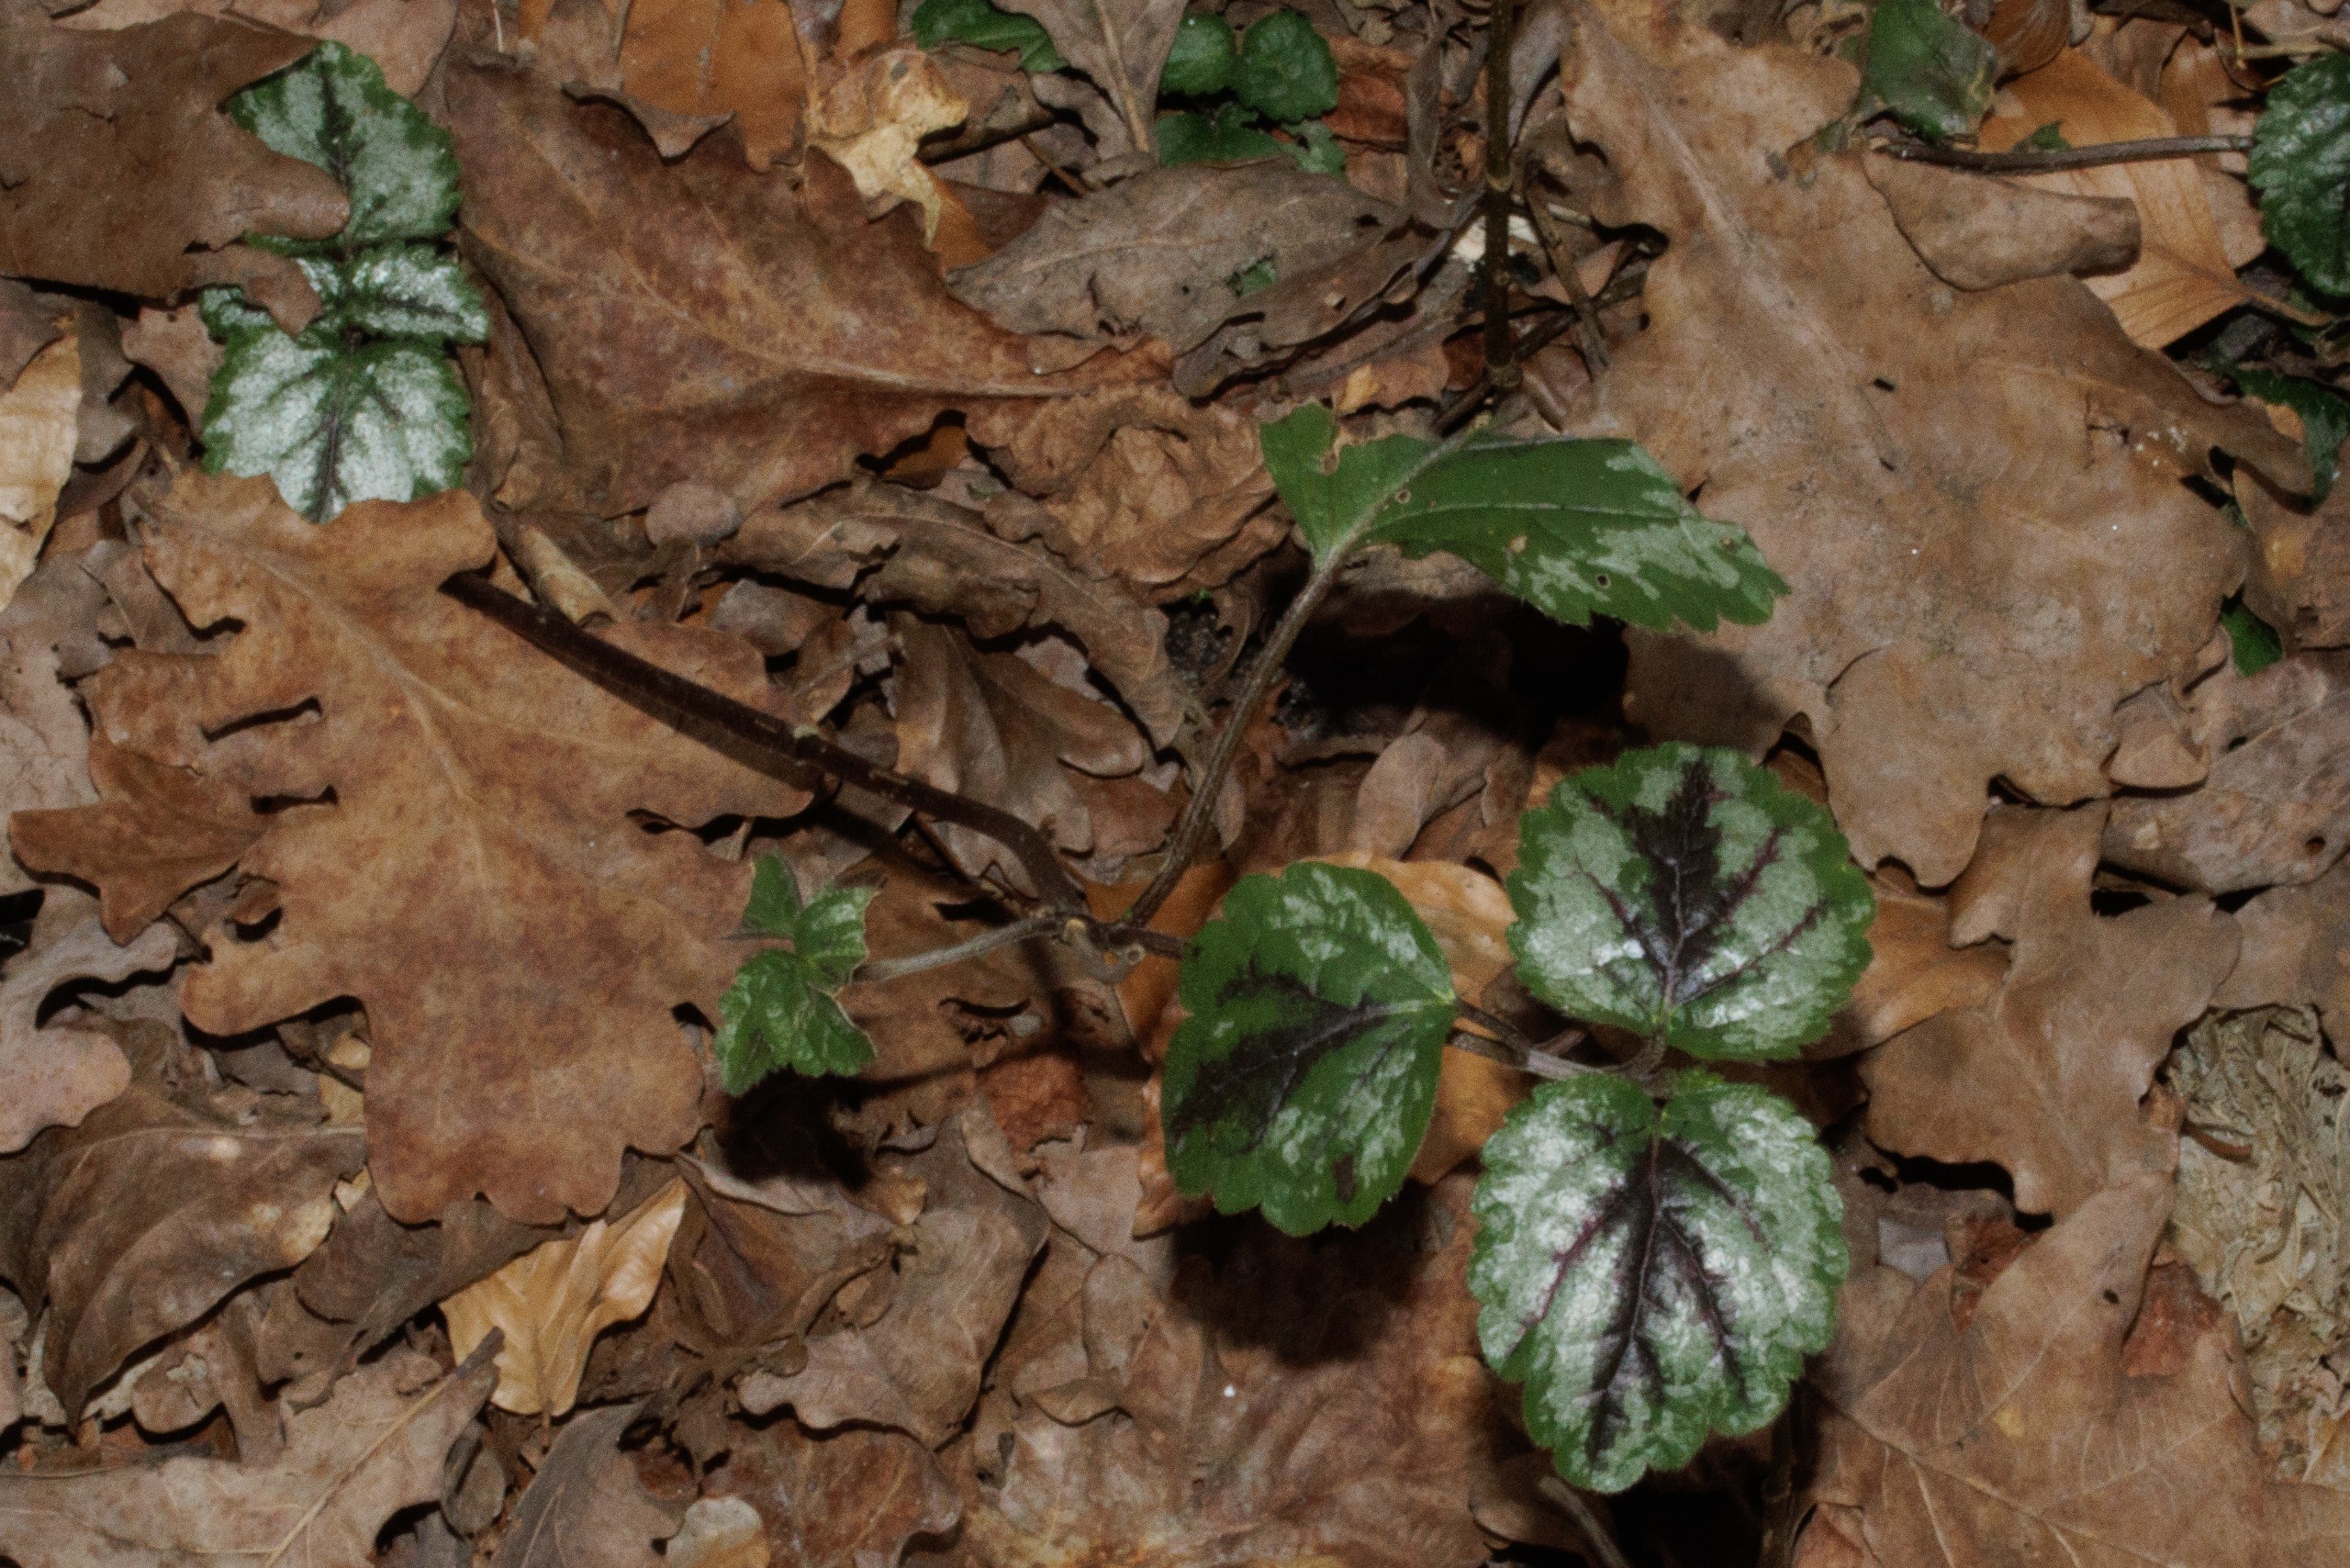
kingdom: Plantae
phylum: Tracheophyta
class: Magnoliopsida
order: Lamiales
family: Lamiaceae
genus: Lamium
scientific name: Lamium galeobdolon
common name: Have-guldnælde
